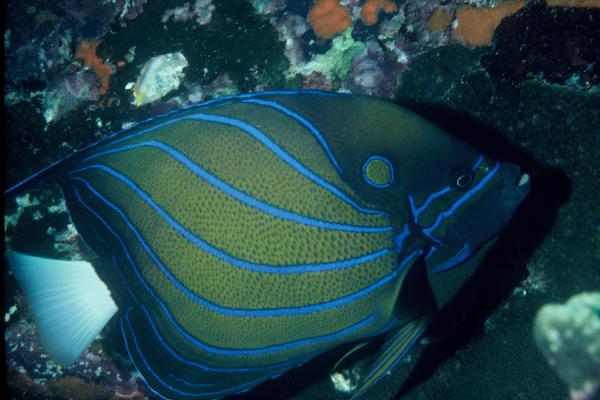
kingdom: Animalia
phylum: Chordata
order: Perciformes
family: Pomacanthidae
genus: Pomacanthus
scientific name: Pomacanthus annularis
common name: Bluering angelfish
